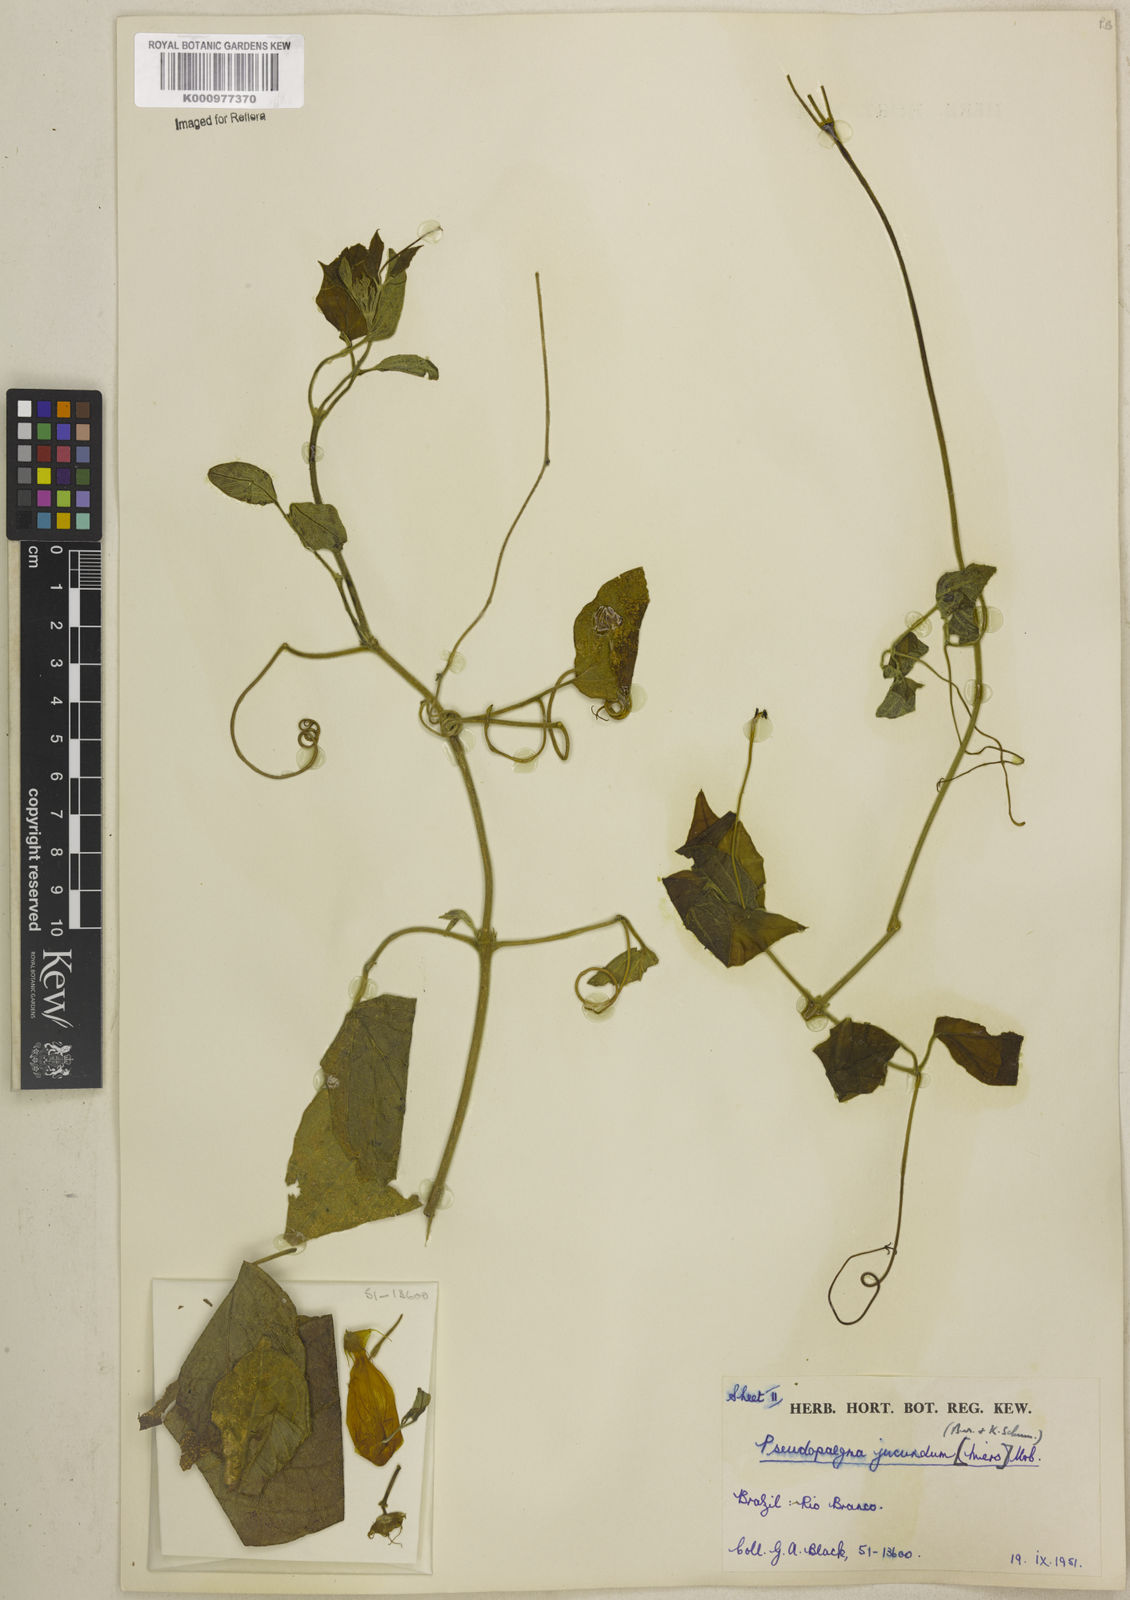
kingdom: Plantae
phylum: Tracheophyta
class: Magnoliopsida
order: Lamiales
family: Bignoniaceae
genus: Anemopaegma
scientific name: Anemopaegma jucundum
